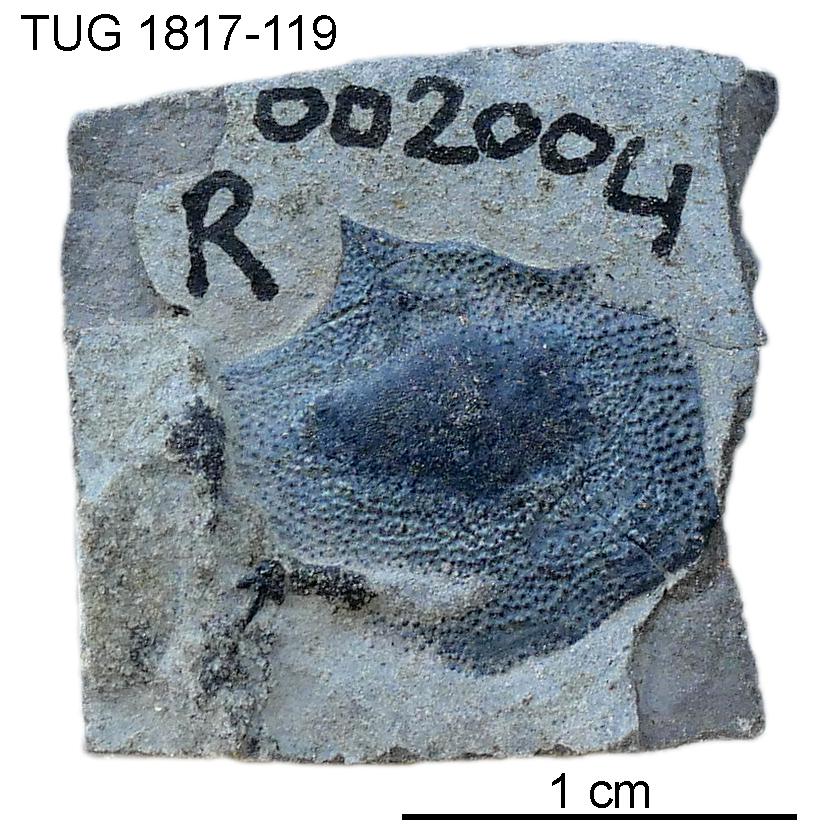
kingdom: Animalia
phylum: Chordata
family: Coccosteidae
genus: Millerosteus
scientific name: Millerosteus minor
